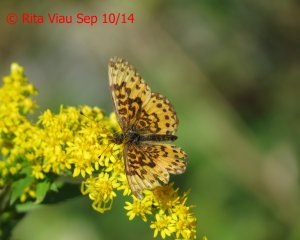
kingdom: Animalia
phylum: Arthropoda
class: Insecta
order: Lepidoptera
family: Nymphalidae
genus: Boloria
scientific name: Boloria selene
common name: Silver-bordered Fritillary
